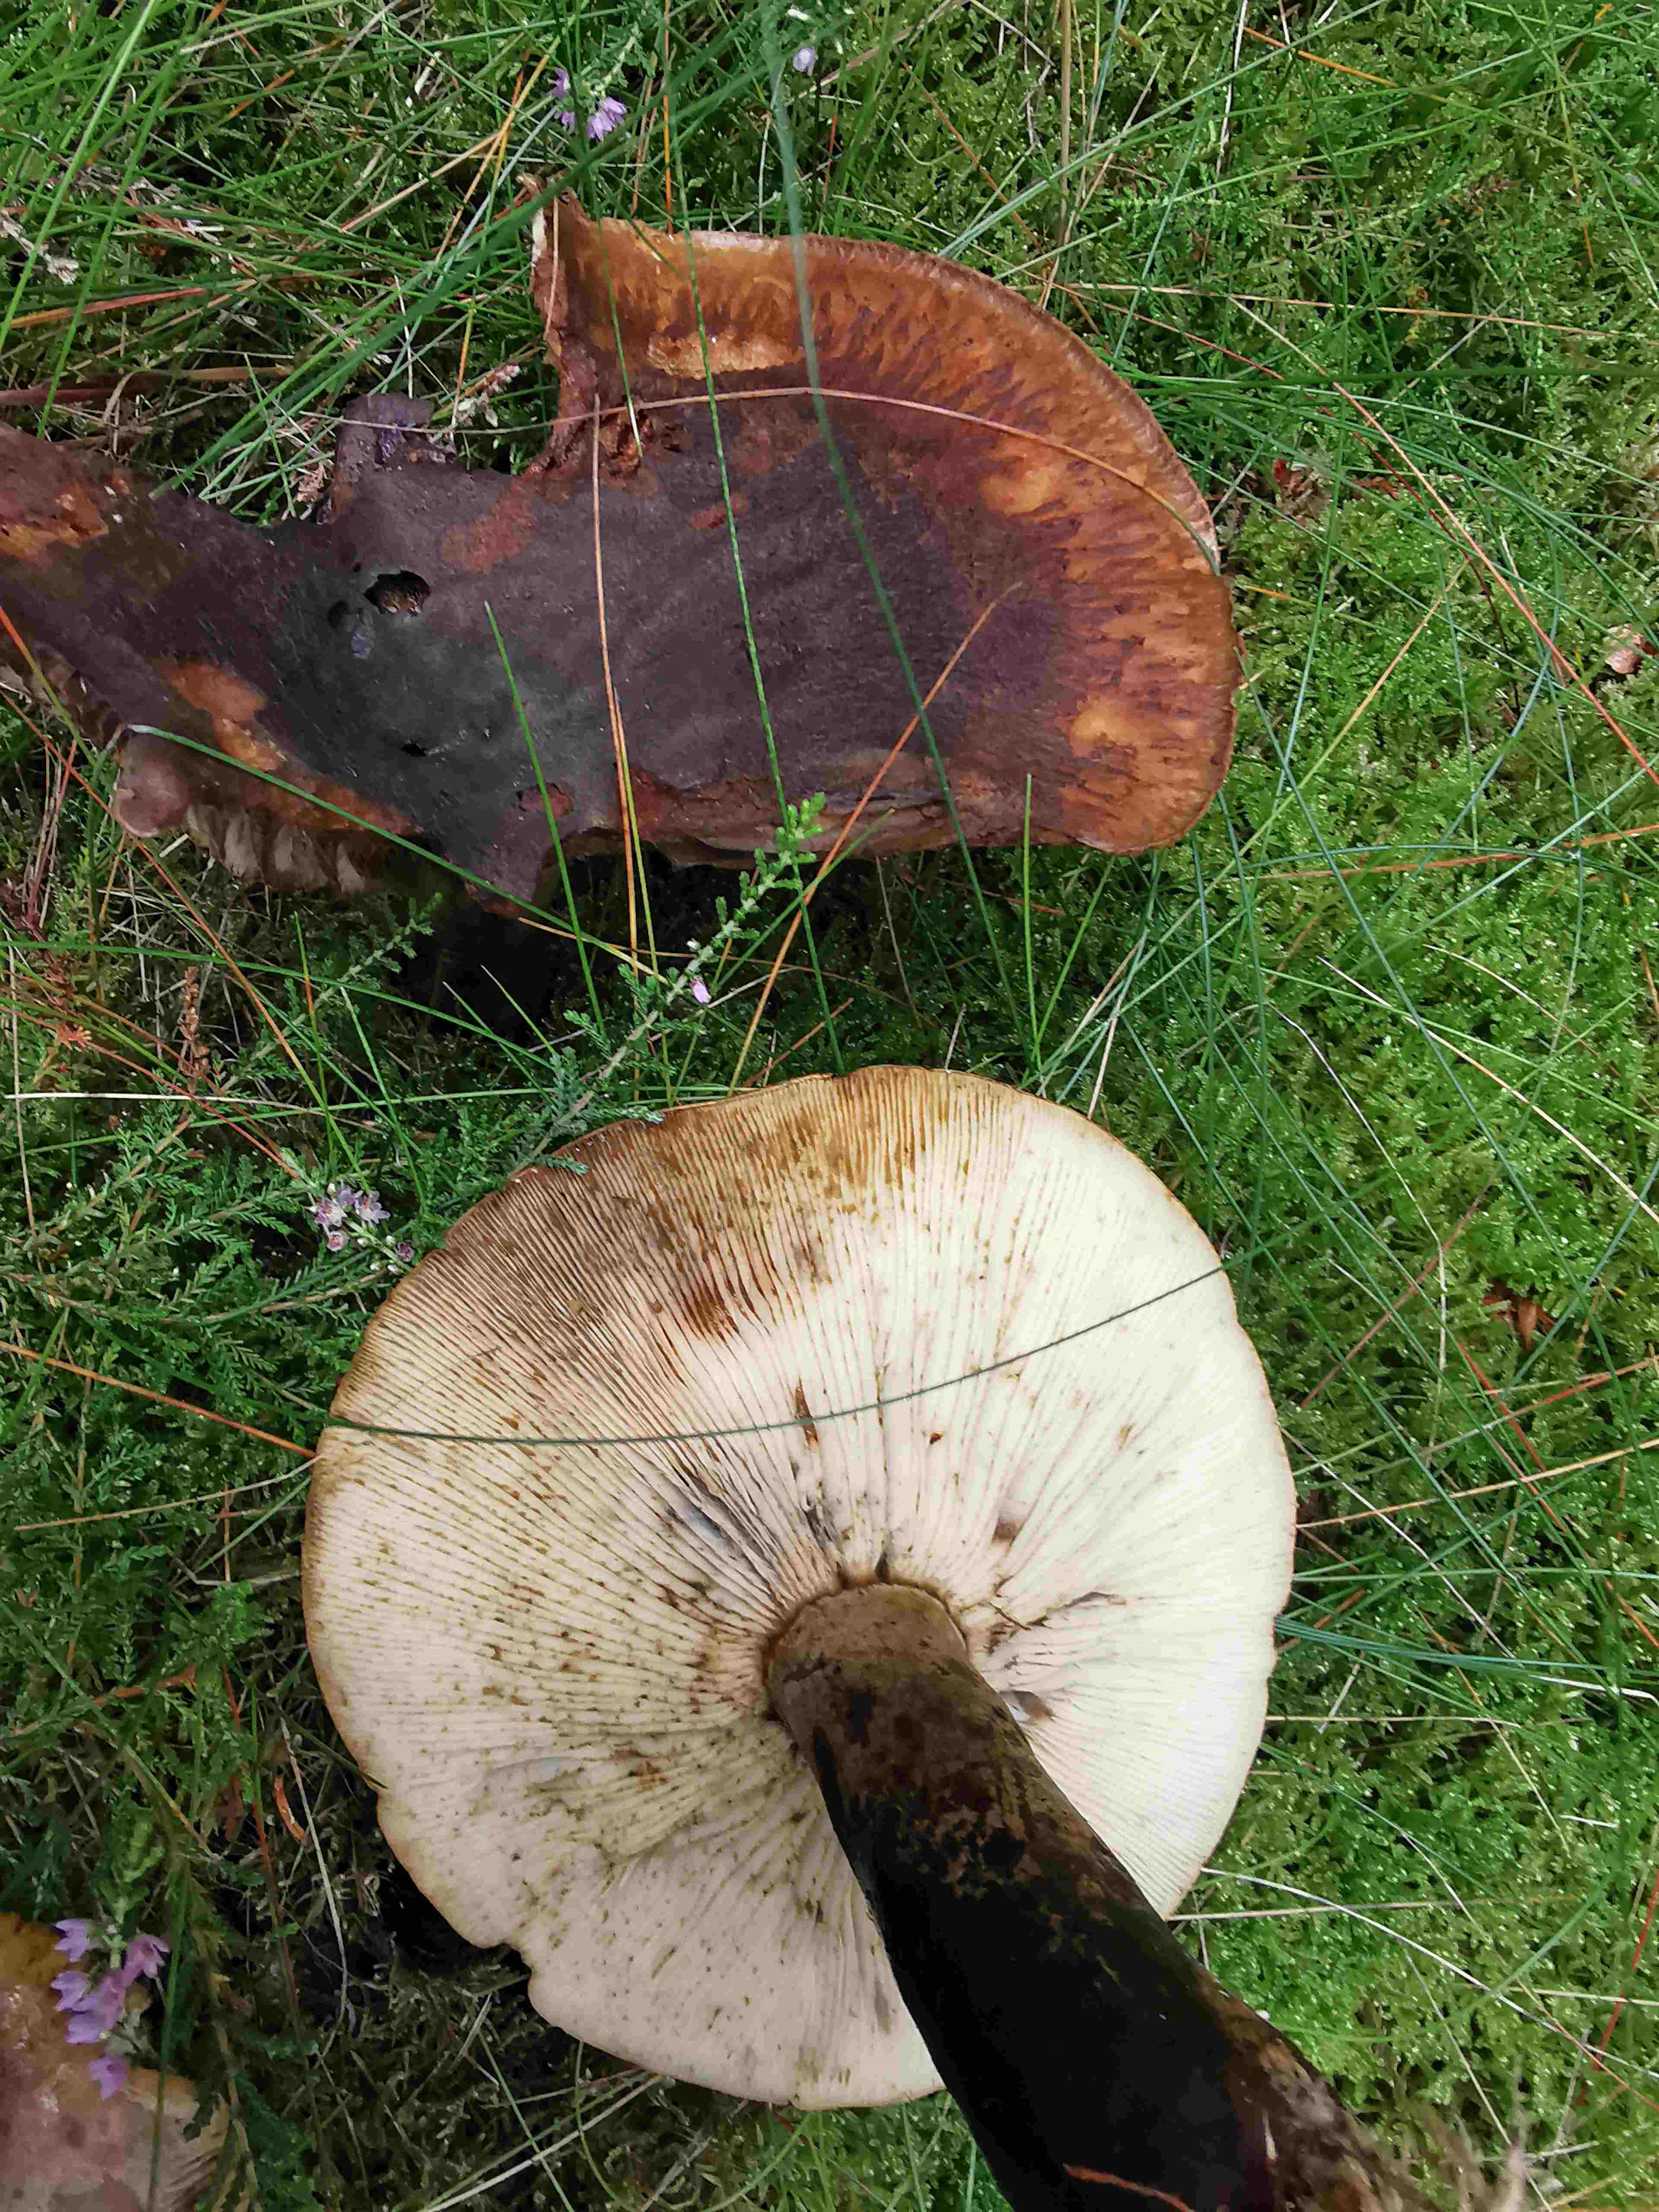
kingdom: Fungi
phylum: Basidiomycota
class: Agaricomycetes
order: Russulales
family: Russulaceae
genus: Lactarius
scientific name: Lactarius necator
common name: manddraber-mælkehat
